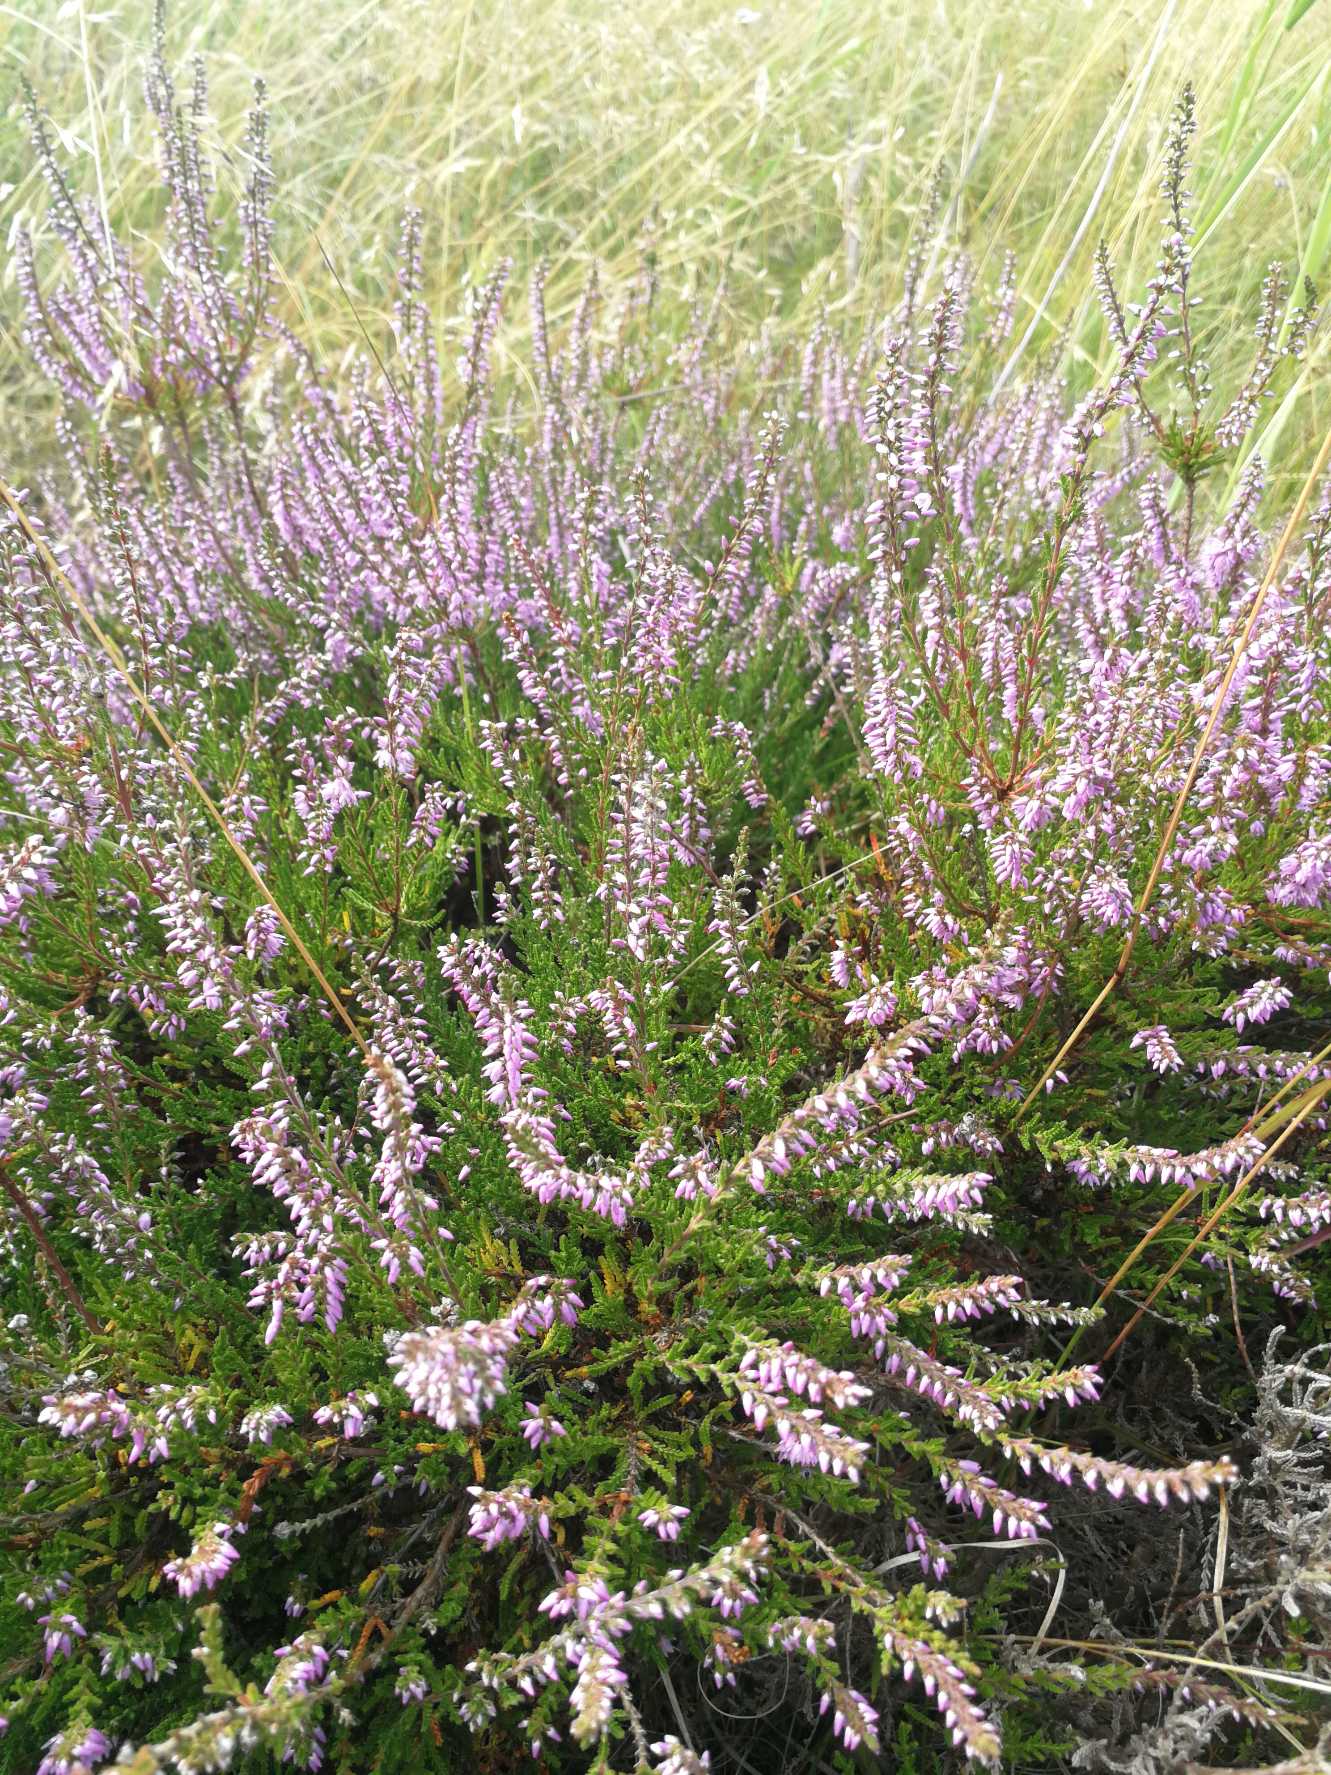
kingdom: Plantae
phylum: Tracheophyta
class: Magnoliopsida
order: Ericales
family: Ericaceae
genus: Calluna
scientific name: Calluna vulgaris
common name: Hedelyng
